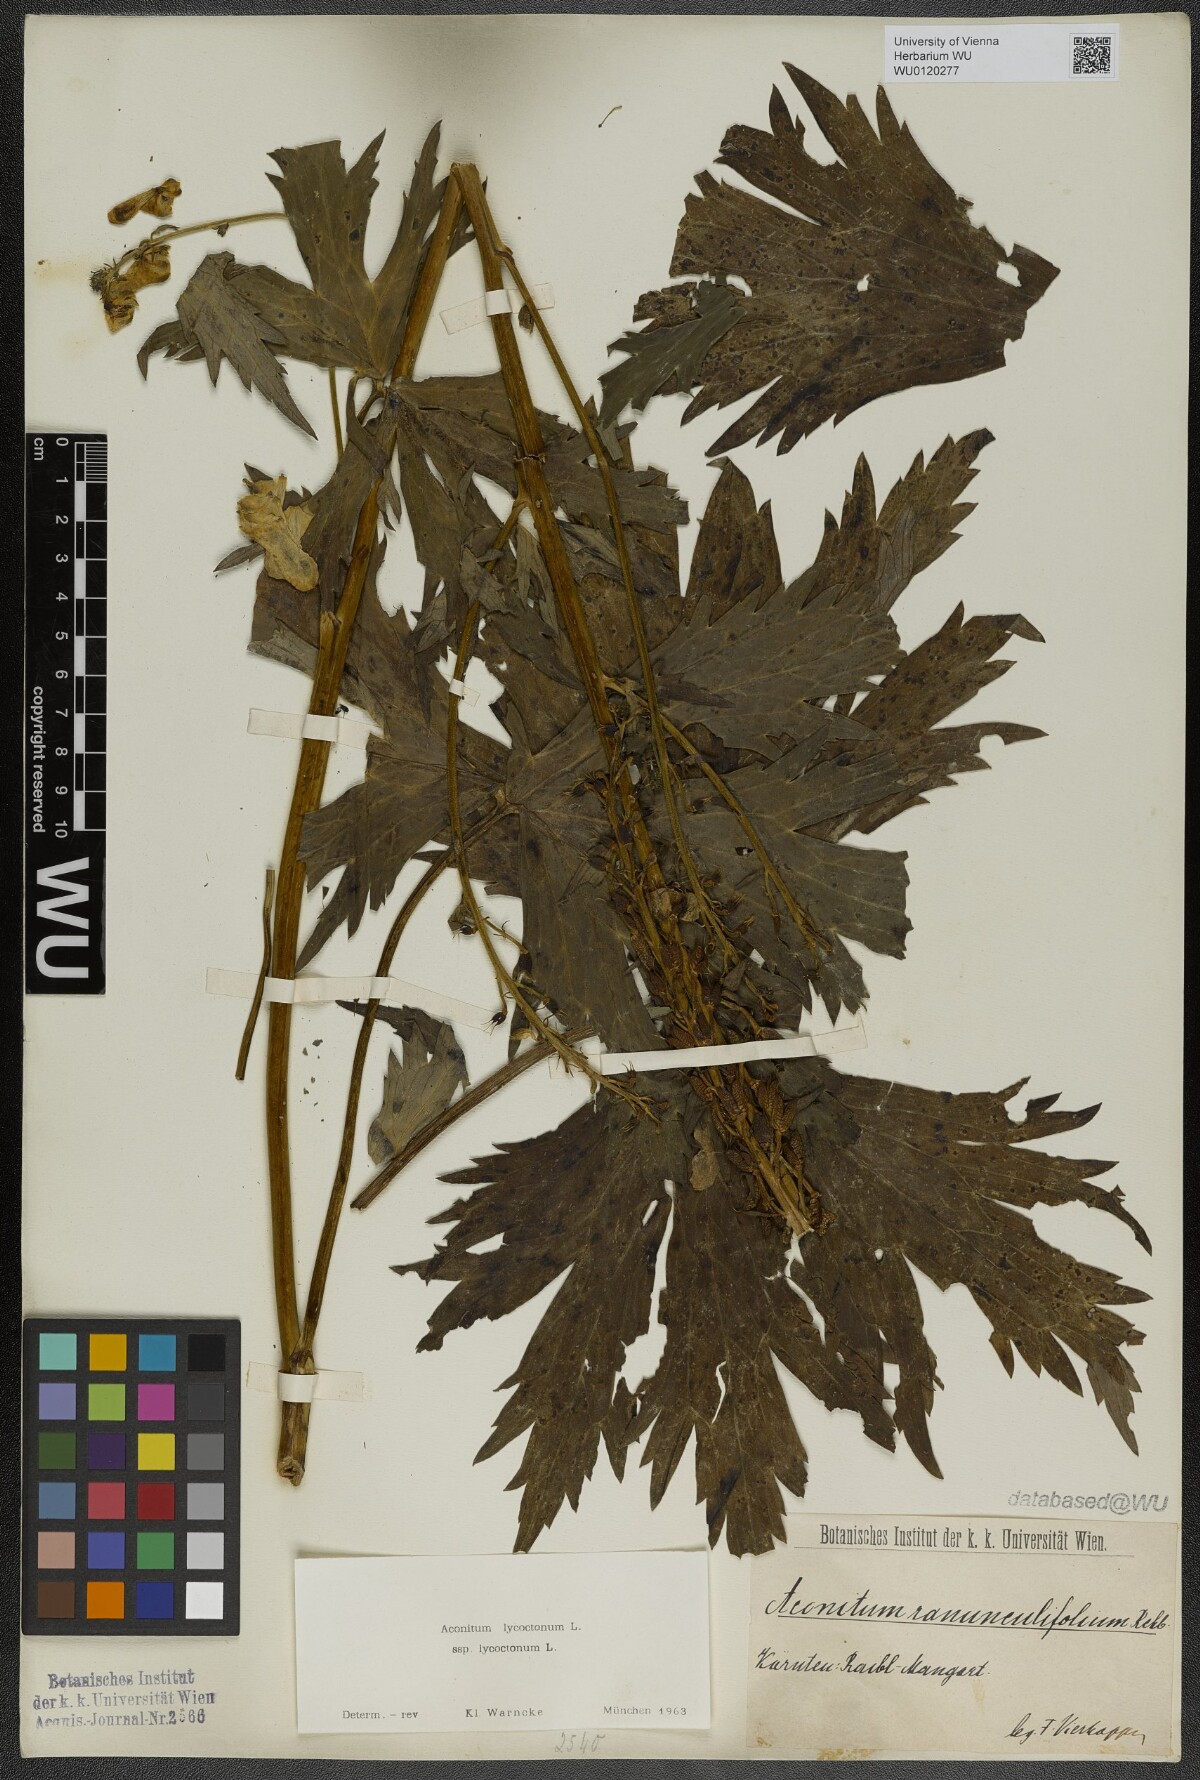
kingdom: Plantae
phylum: Tracheophyta
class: Magnoliopsida
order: Ranunculales
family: Ranunculaceae
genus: Aconitum
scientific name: Aconitum lycoctonum
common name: Wolf's-bane
